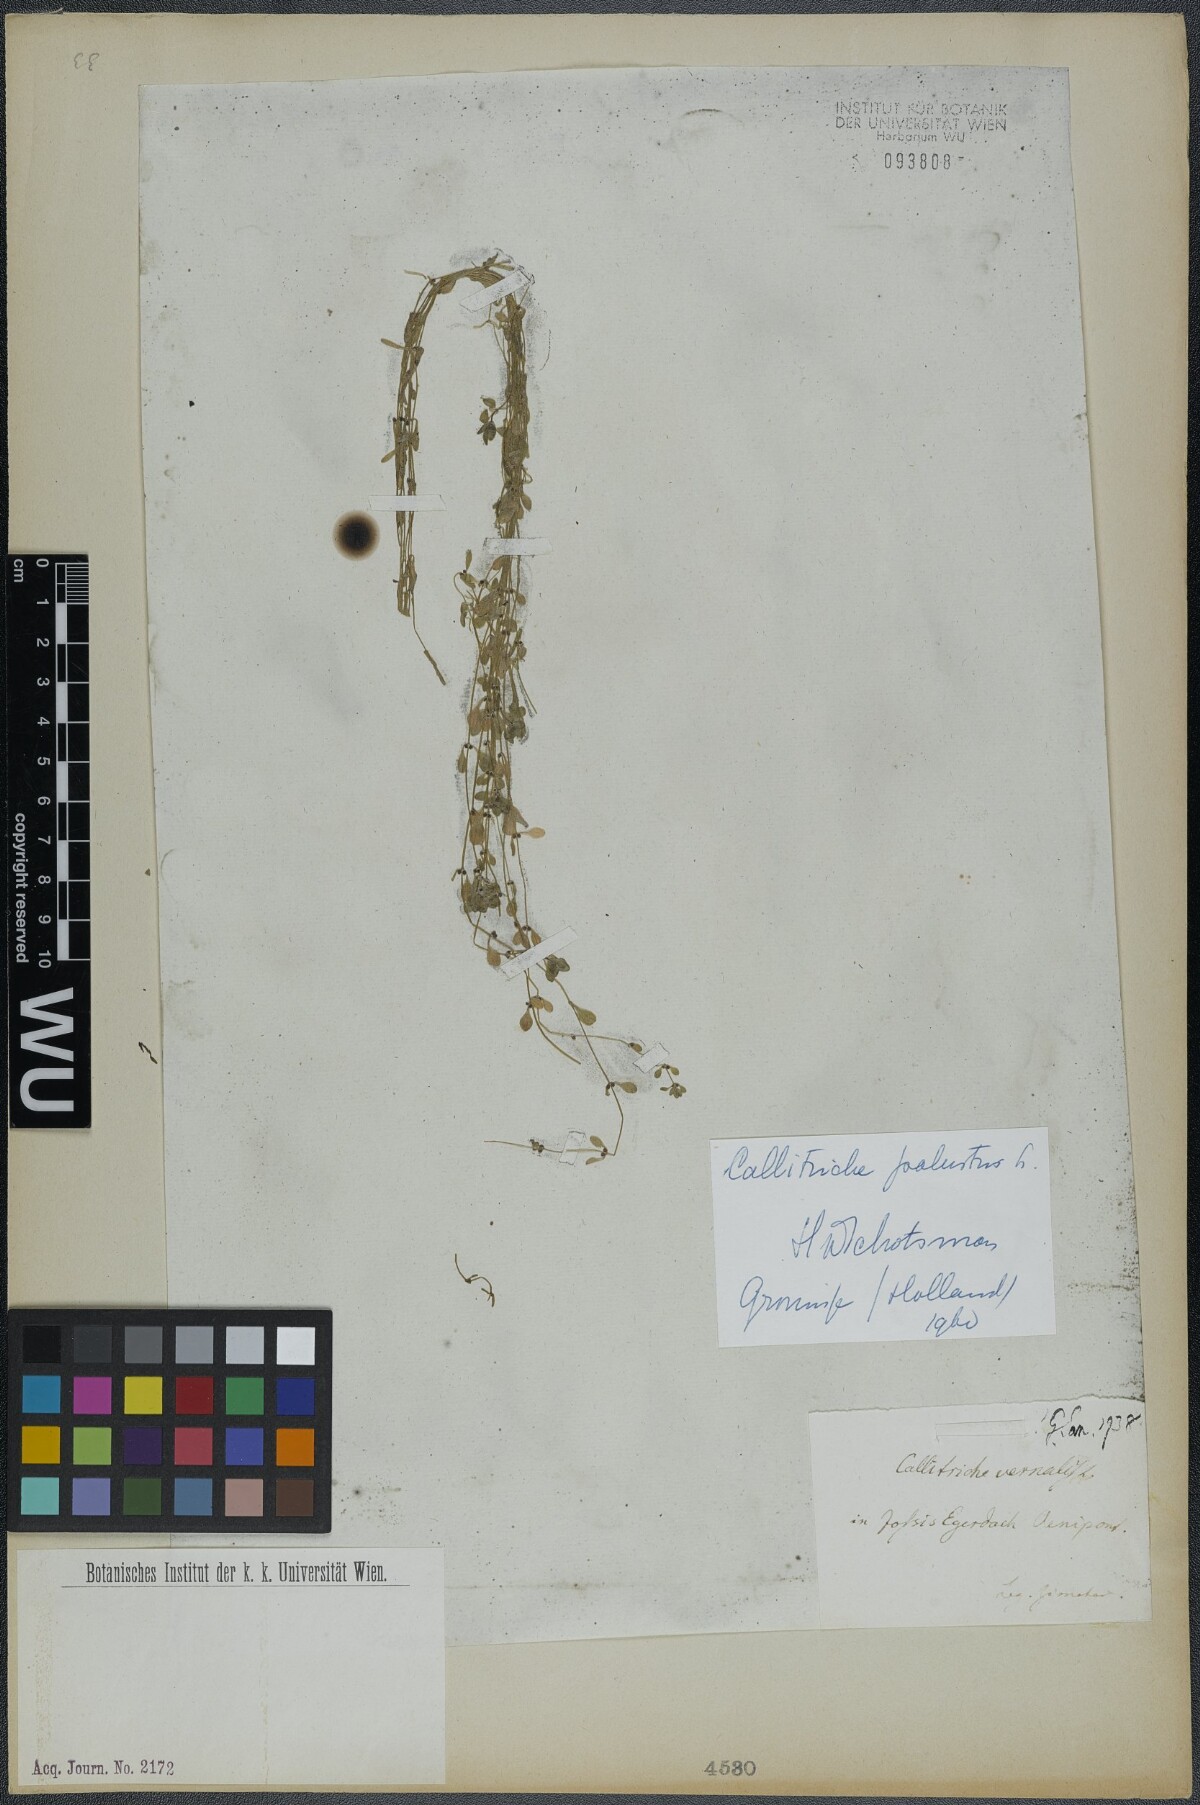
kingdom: Plantae
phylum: Tracheophyta
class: Magnoliopsida
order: Lamiales
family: Plantaginaceae
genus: Callitriche
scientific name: Callitriche palustris
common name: Spring water-starwort
